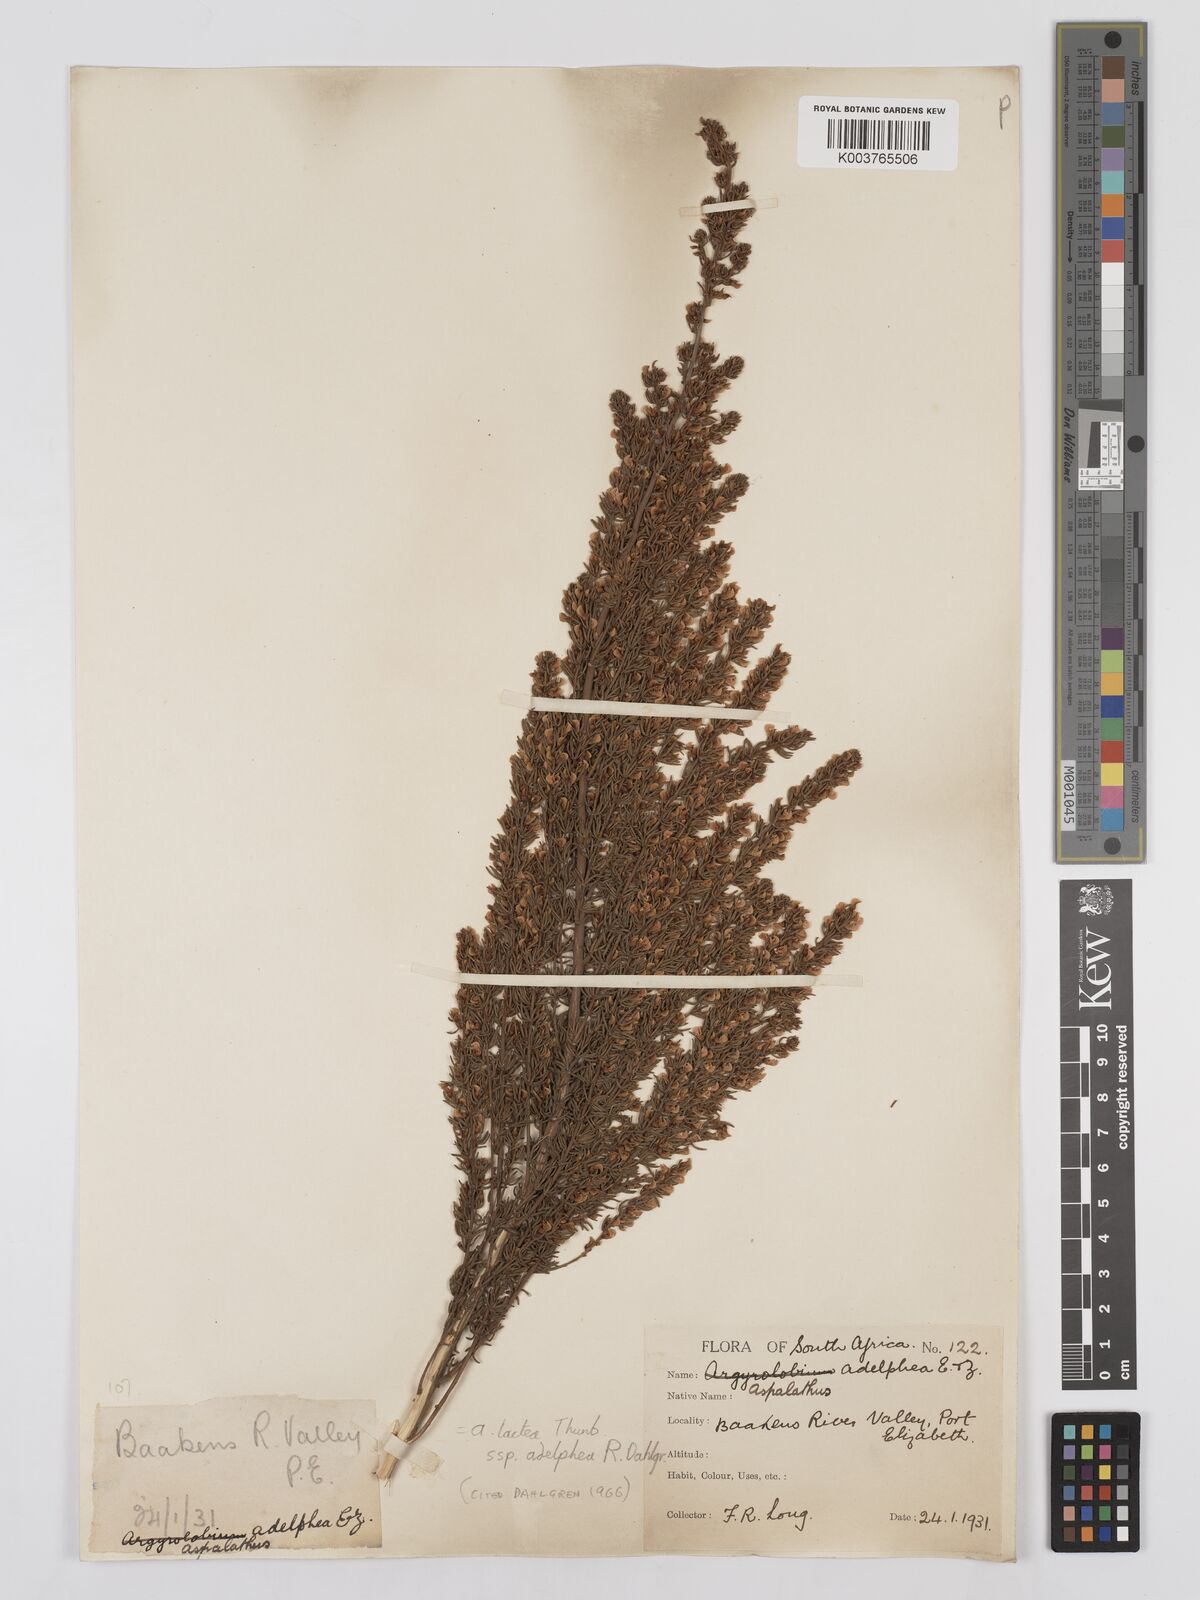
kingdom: Plantae
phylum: Tracheophyta
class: Magnoliopsida
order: Fabales
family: Fabaceae
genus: Aspalathus
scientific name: Aspalathus lactea
